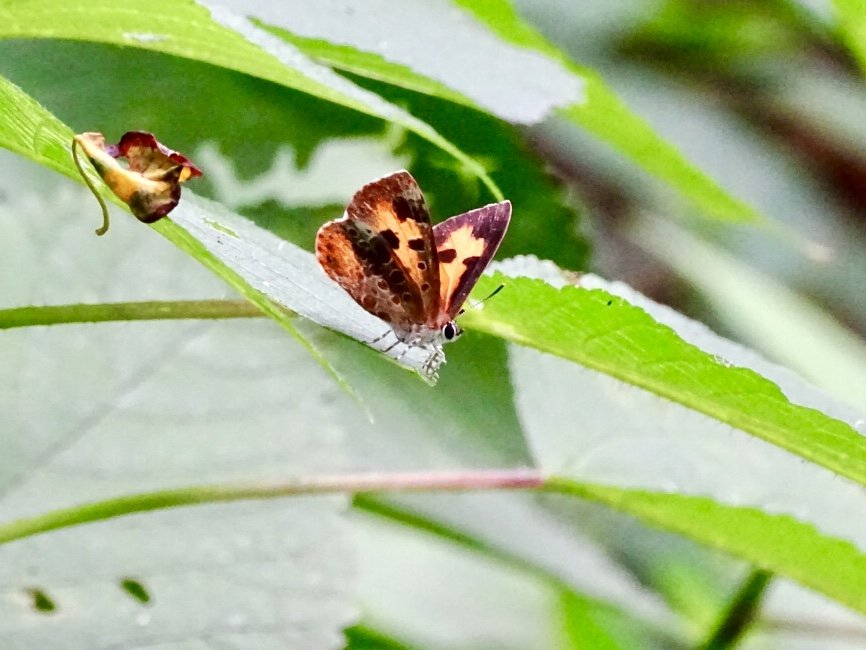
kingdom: Animalia
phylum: Arthropoda
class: Insecta
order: Lepidoptera
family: Lycaenidae
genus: Feniseca
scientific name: Feniseca tarquinius
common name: Harvester
